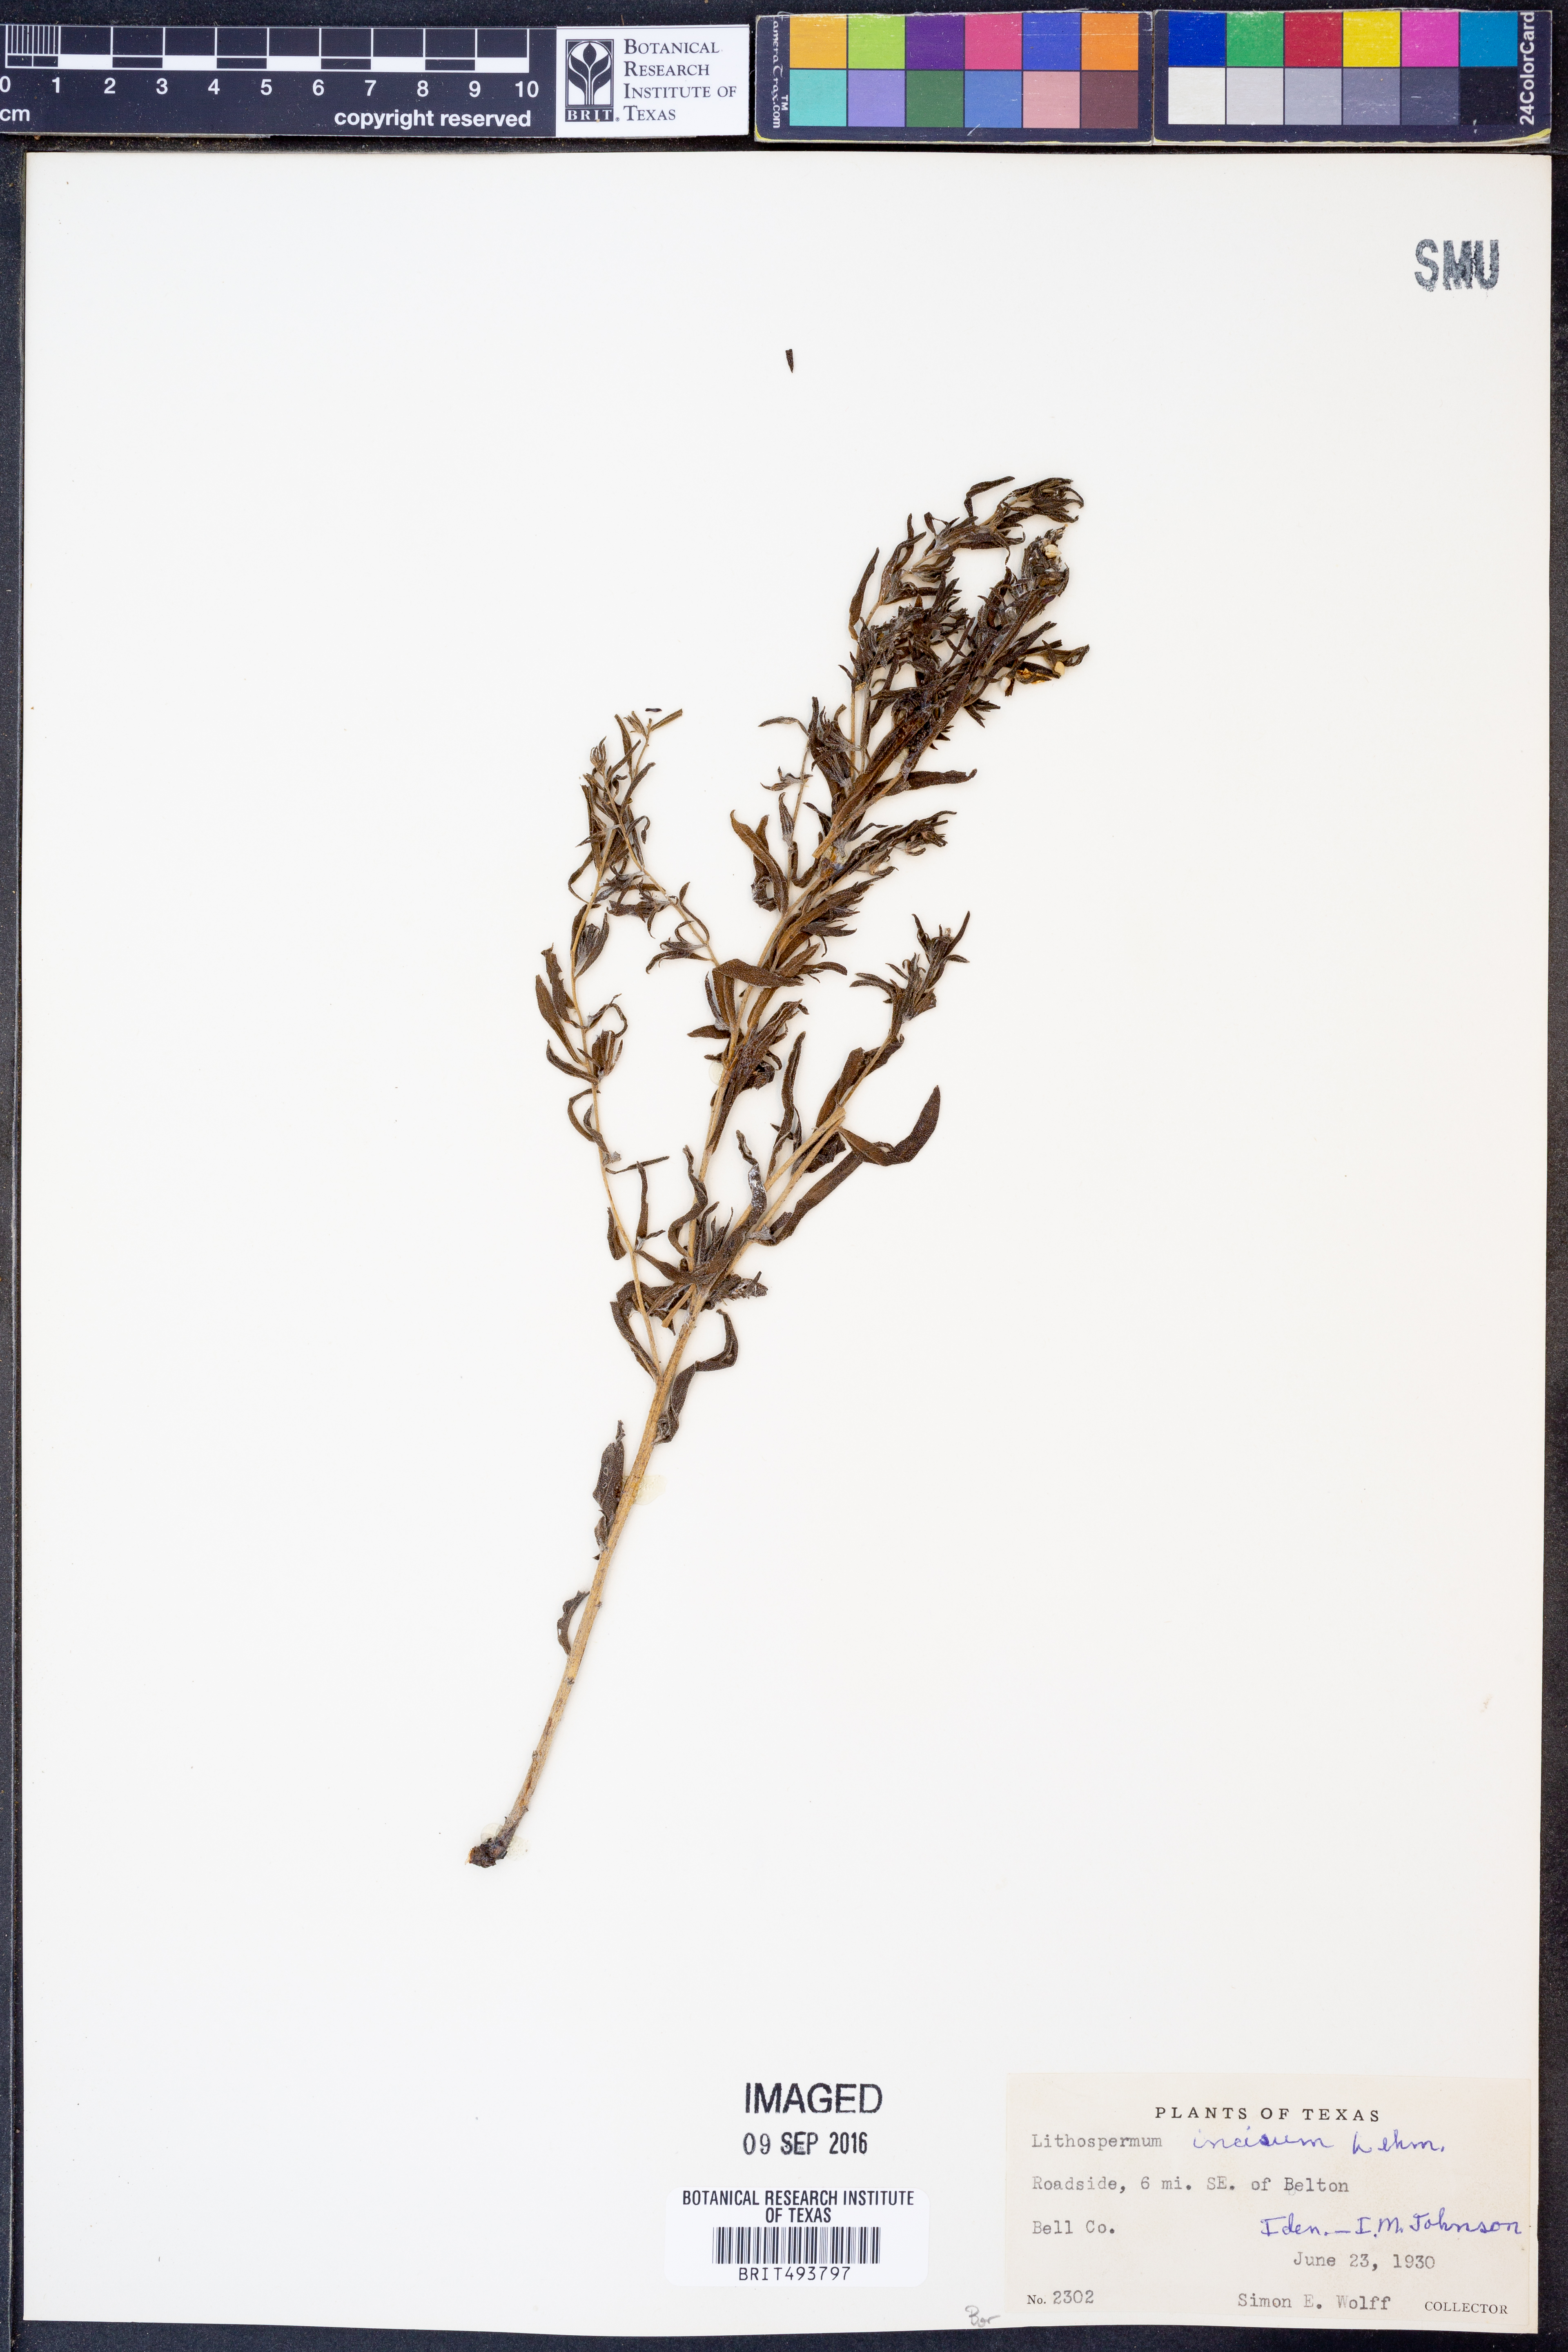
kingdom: Plantae
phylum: Tracheophyta
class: Magnoliopsida
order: Boraginales
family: Boraginaceae
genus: Lithospermum
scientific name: Lithospermum incisum
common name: Fringed gromwell
